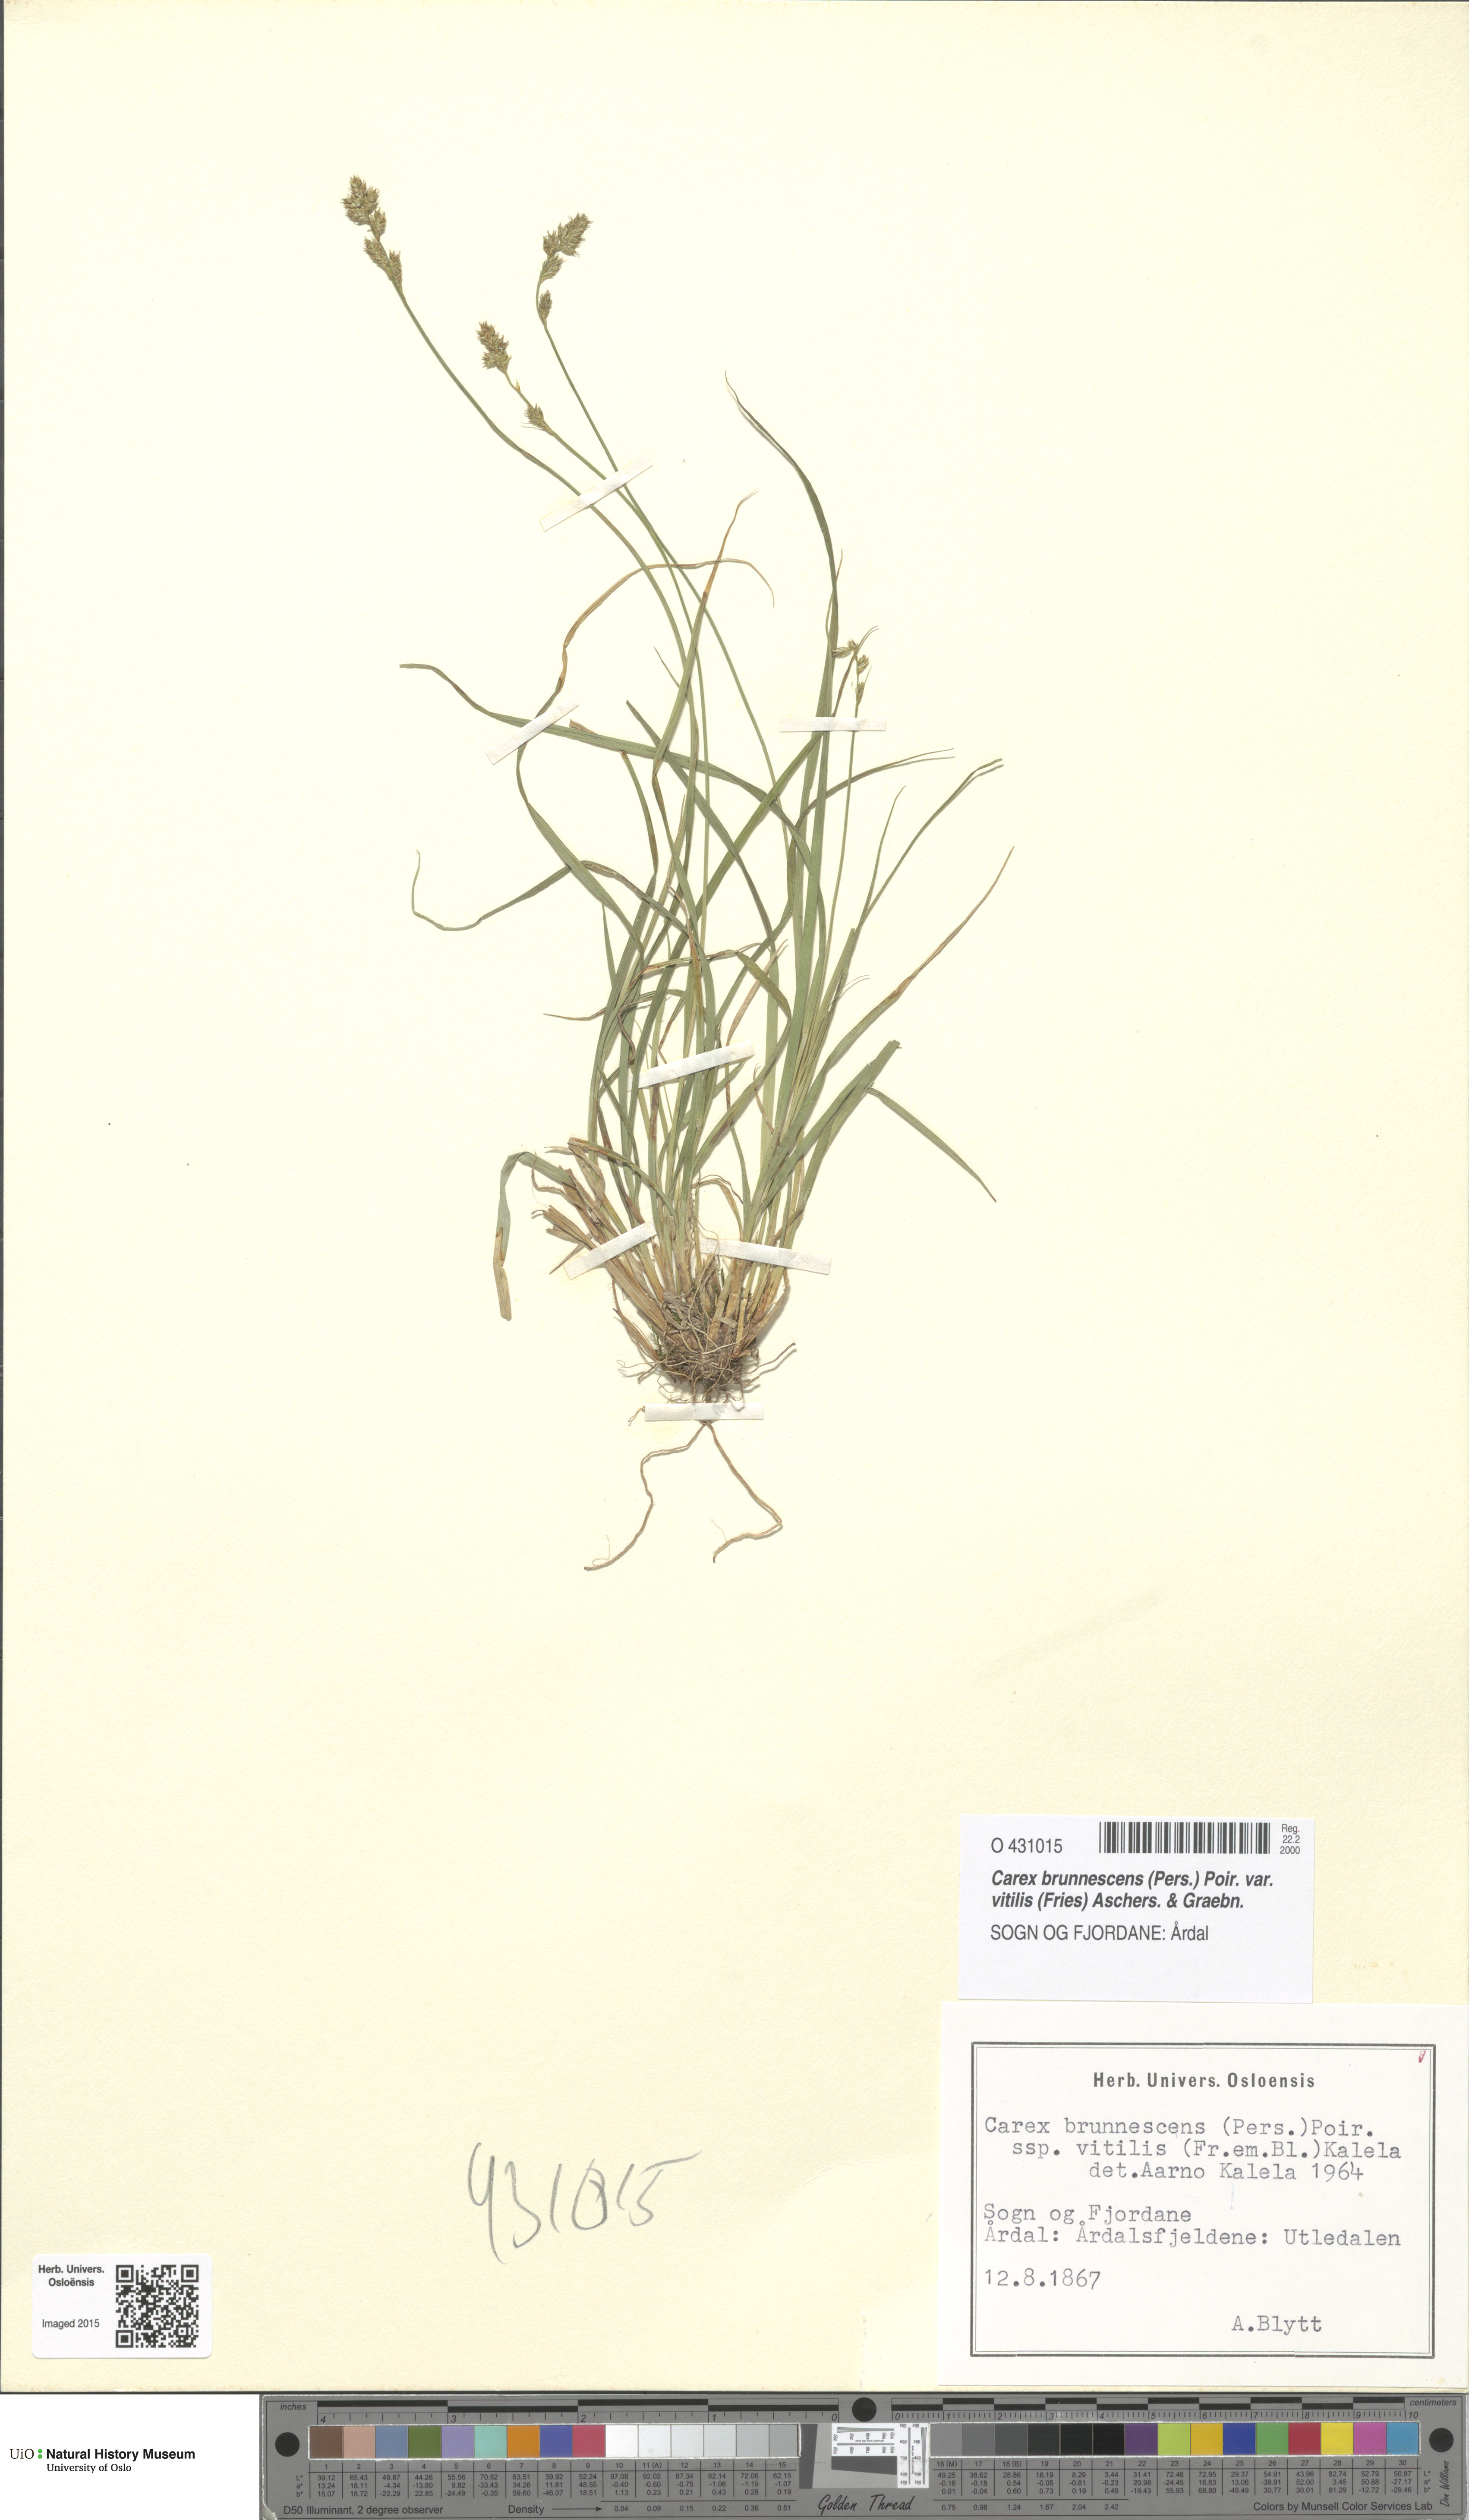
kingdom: Plantae
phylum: Tracheophyta
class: Liliopsida
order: Poales
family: Cyperaceae
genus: Carex
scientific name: Carex brunnescens
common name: Brown sedge
